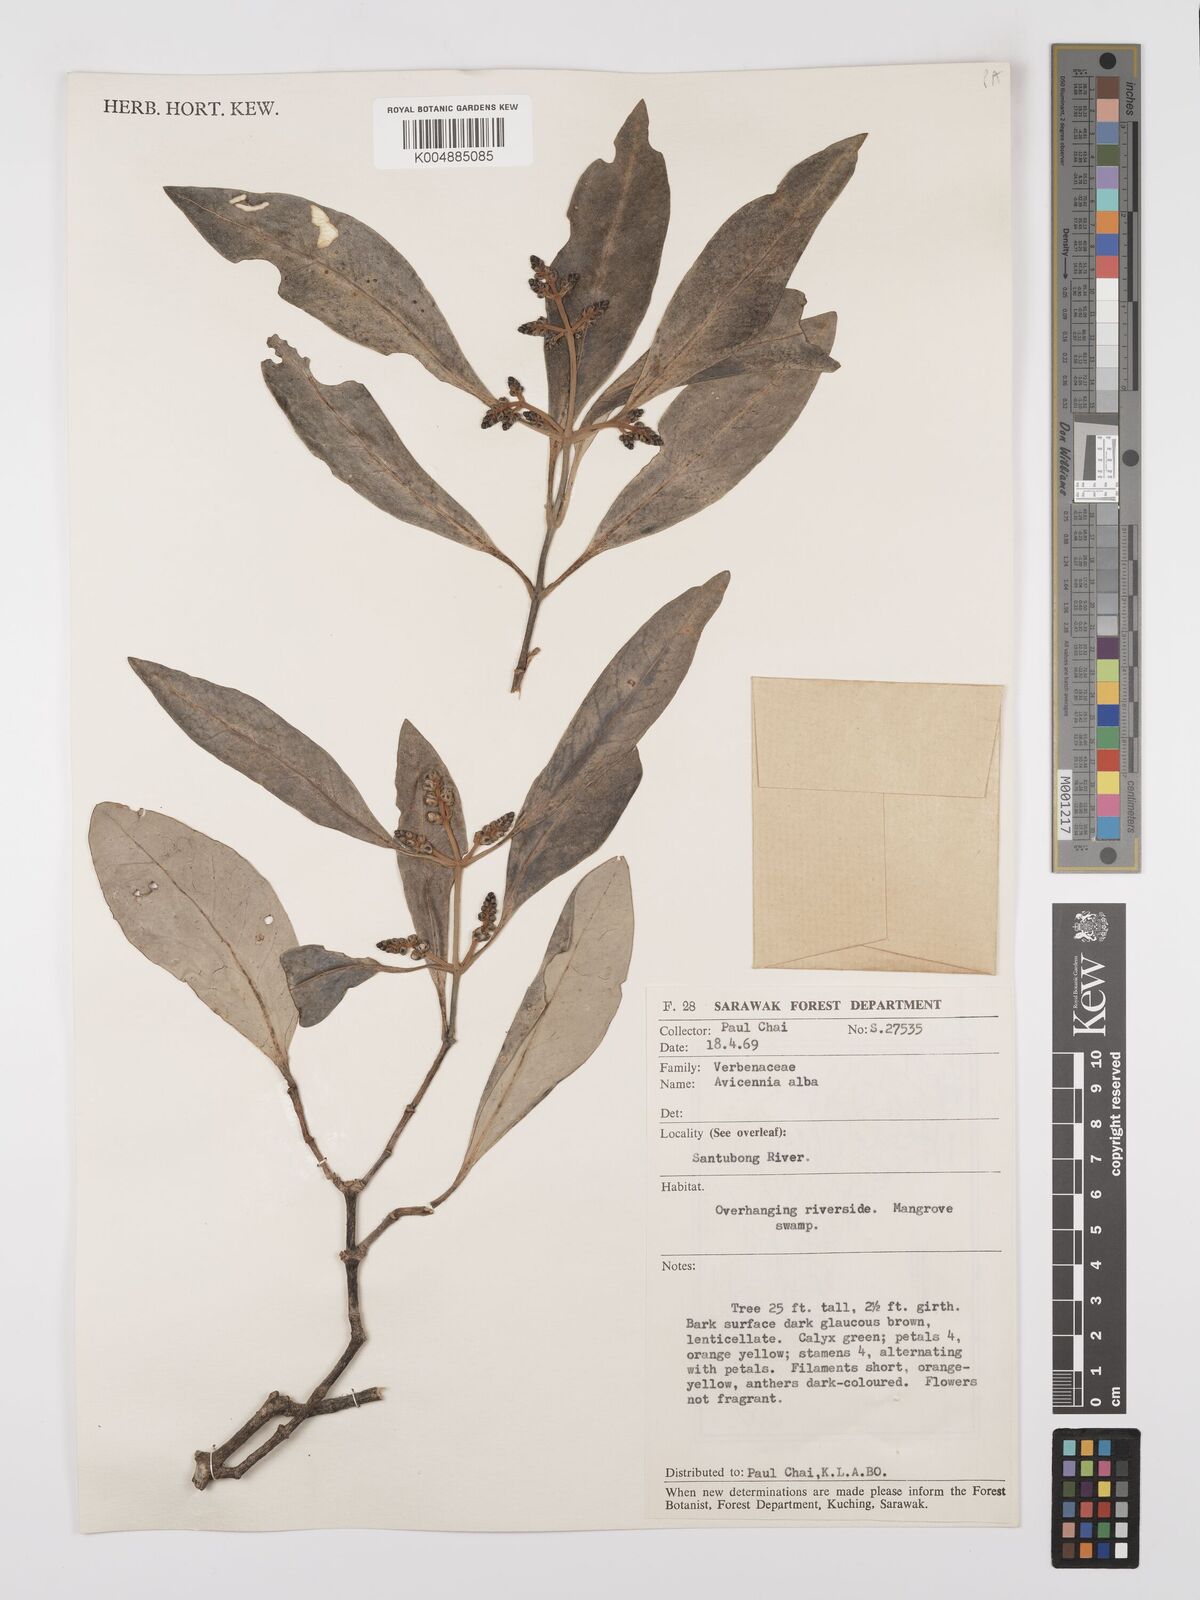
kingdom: Plantae
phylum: Tracheophyta
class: Magnoliopsida
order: Lamiales
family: Acanthaceae
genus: Avicennia
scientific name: Avicennia alba
